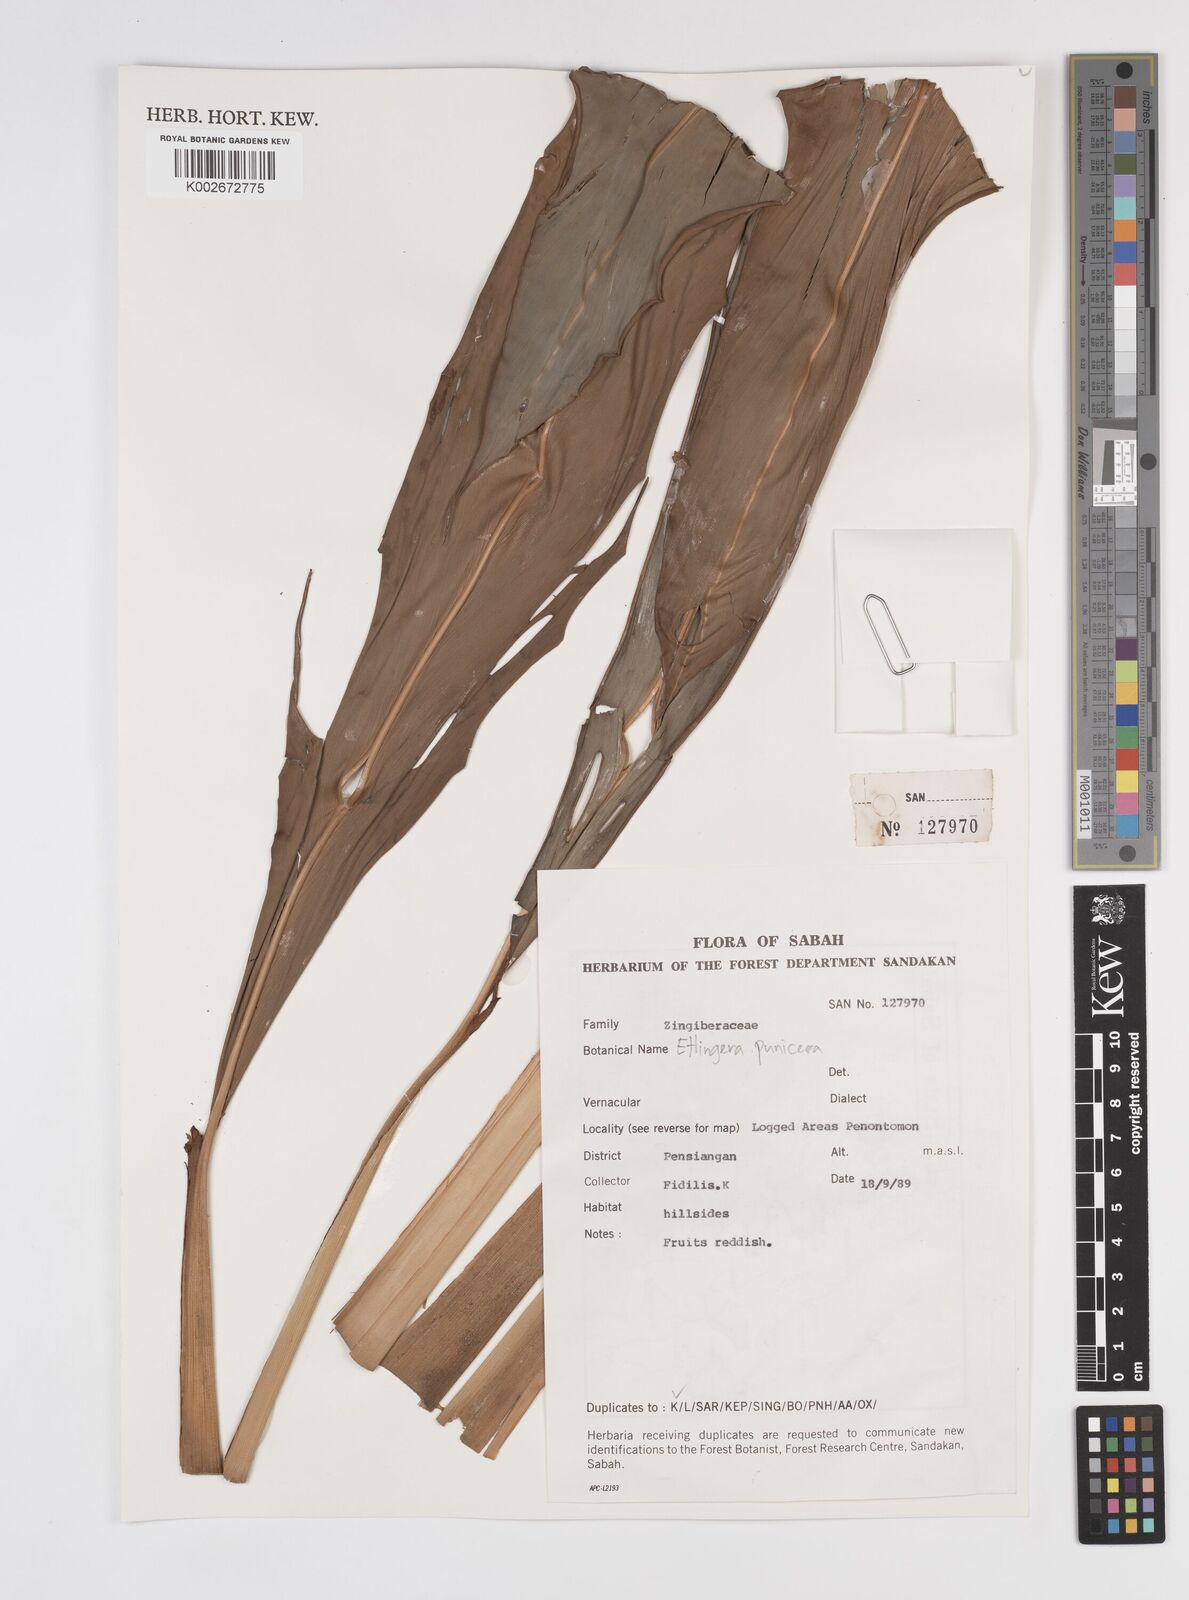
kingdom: Plantae
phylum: Tracheophyta
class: Liliopsida
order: Zingiberales
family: Zingiberaceae
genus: Etlingera
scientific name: Etlingera punicea
